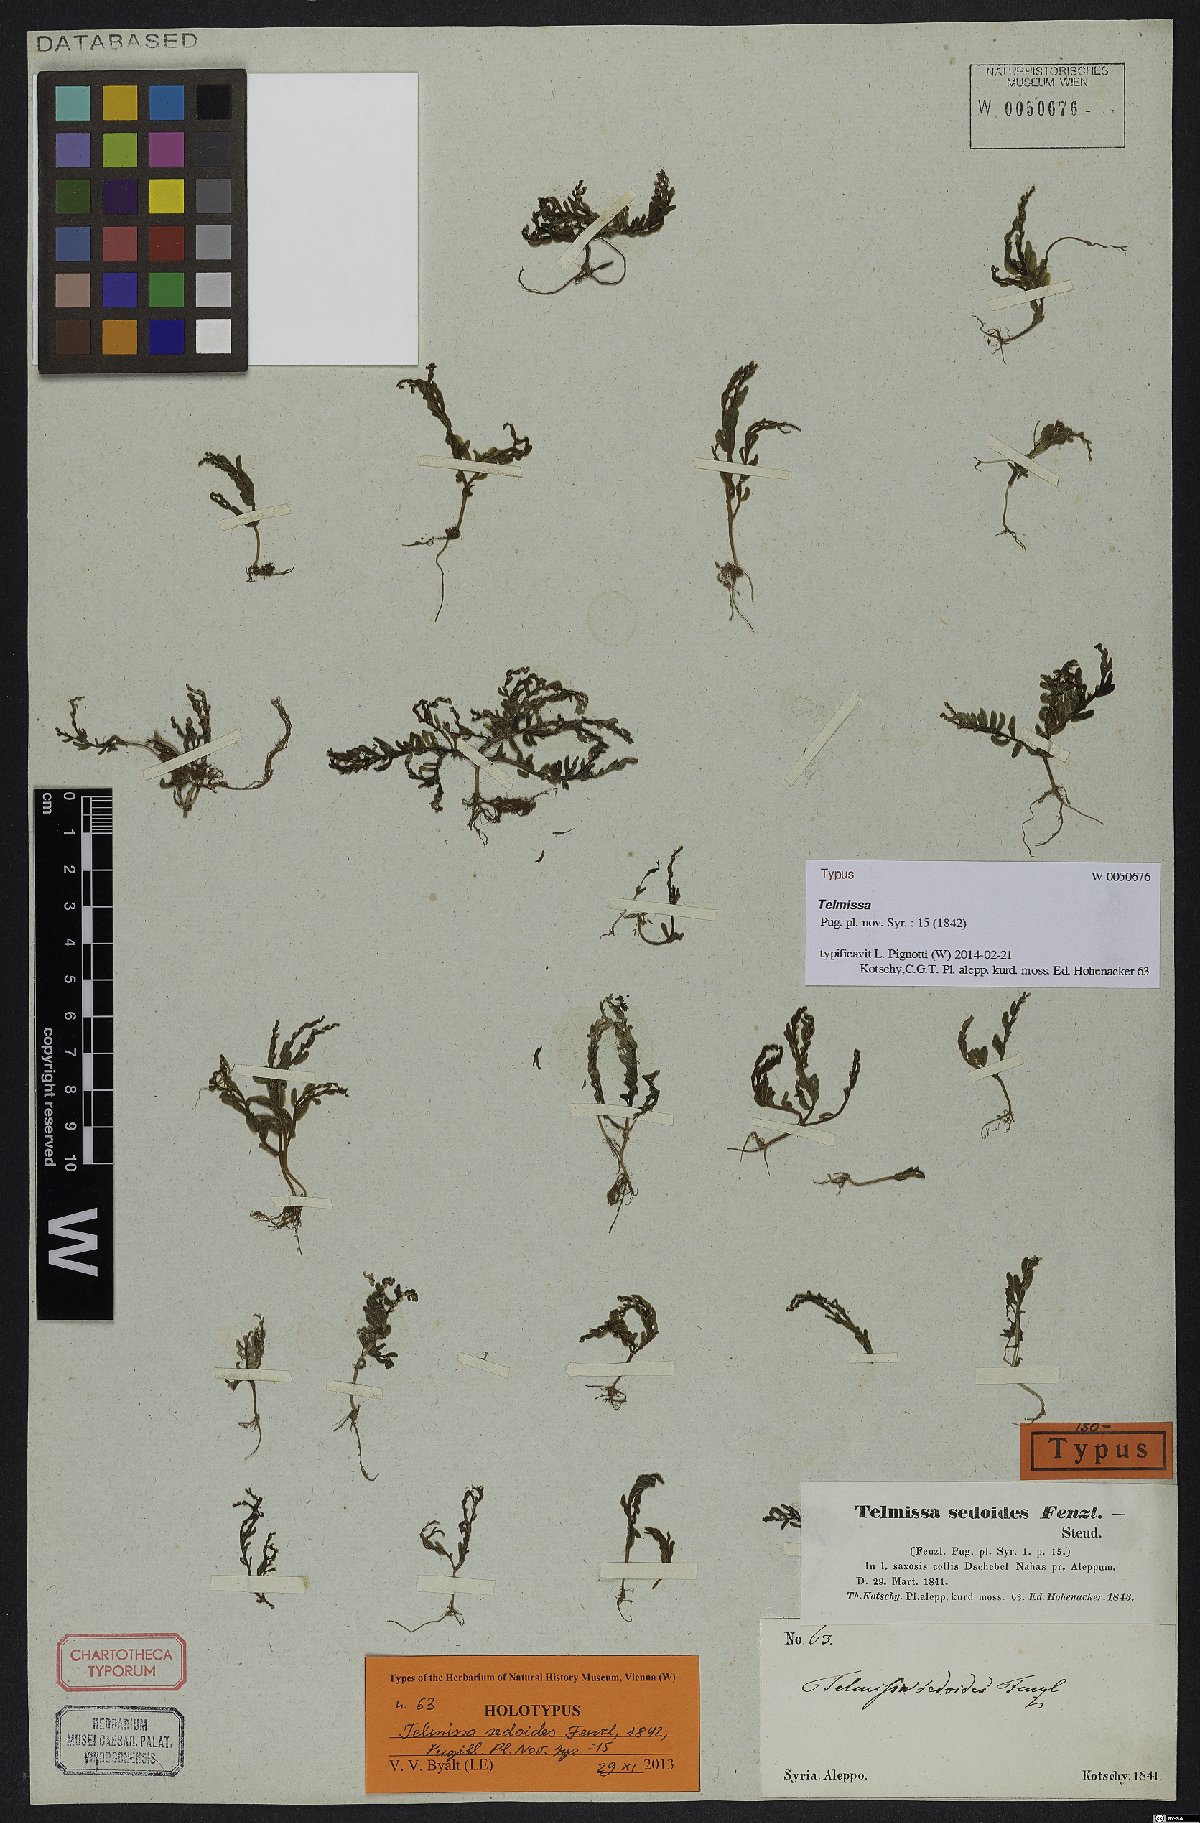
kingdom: Plantae
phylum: Tracheophyta
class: Magnoliopsida
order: Saxifragales
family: Crassulaceae
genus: Sedum
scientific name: Sedum microcarpum
